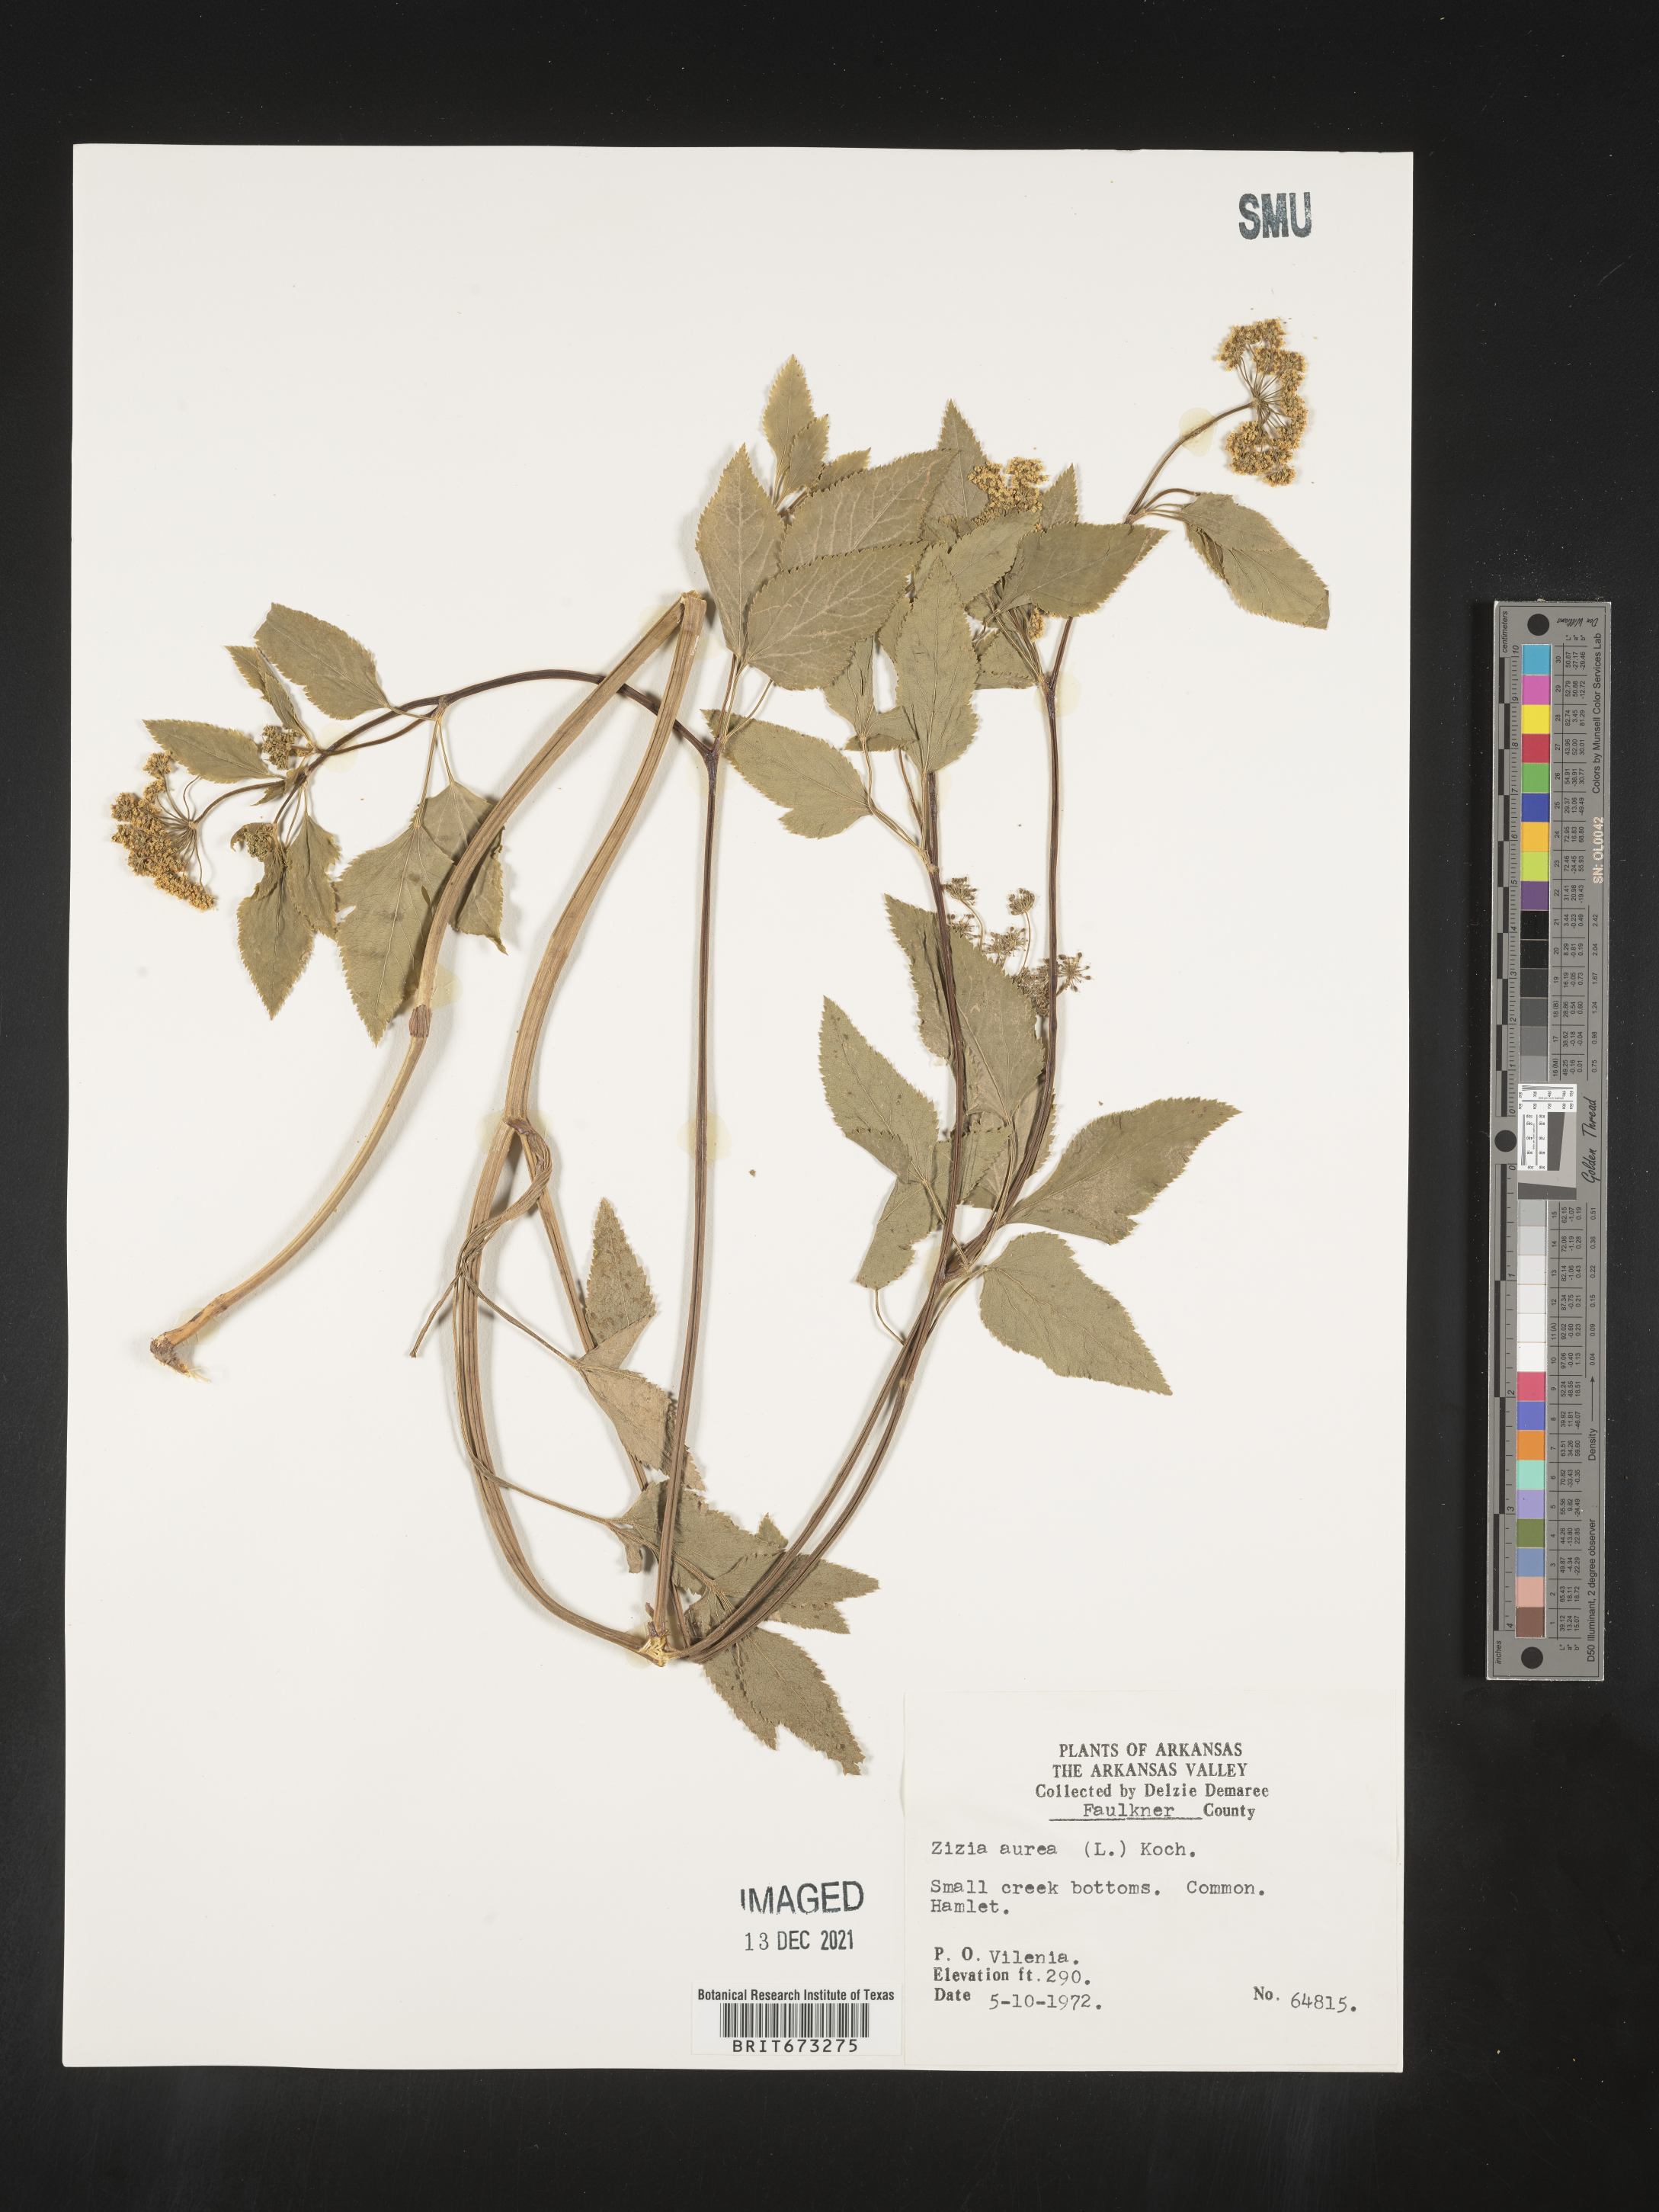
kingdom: Plantae
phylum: Tracheophyta
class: Magnoliopsida
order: Apiales
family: Apiaceae
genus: Zizia
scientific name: Zizia aurea
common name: Golden alexanders
